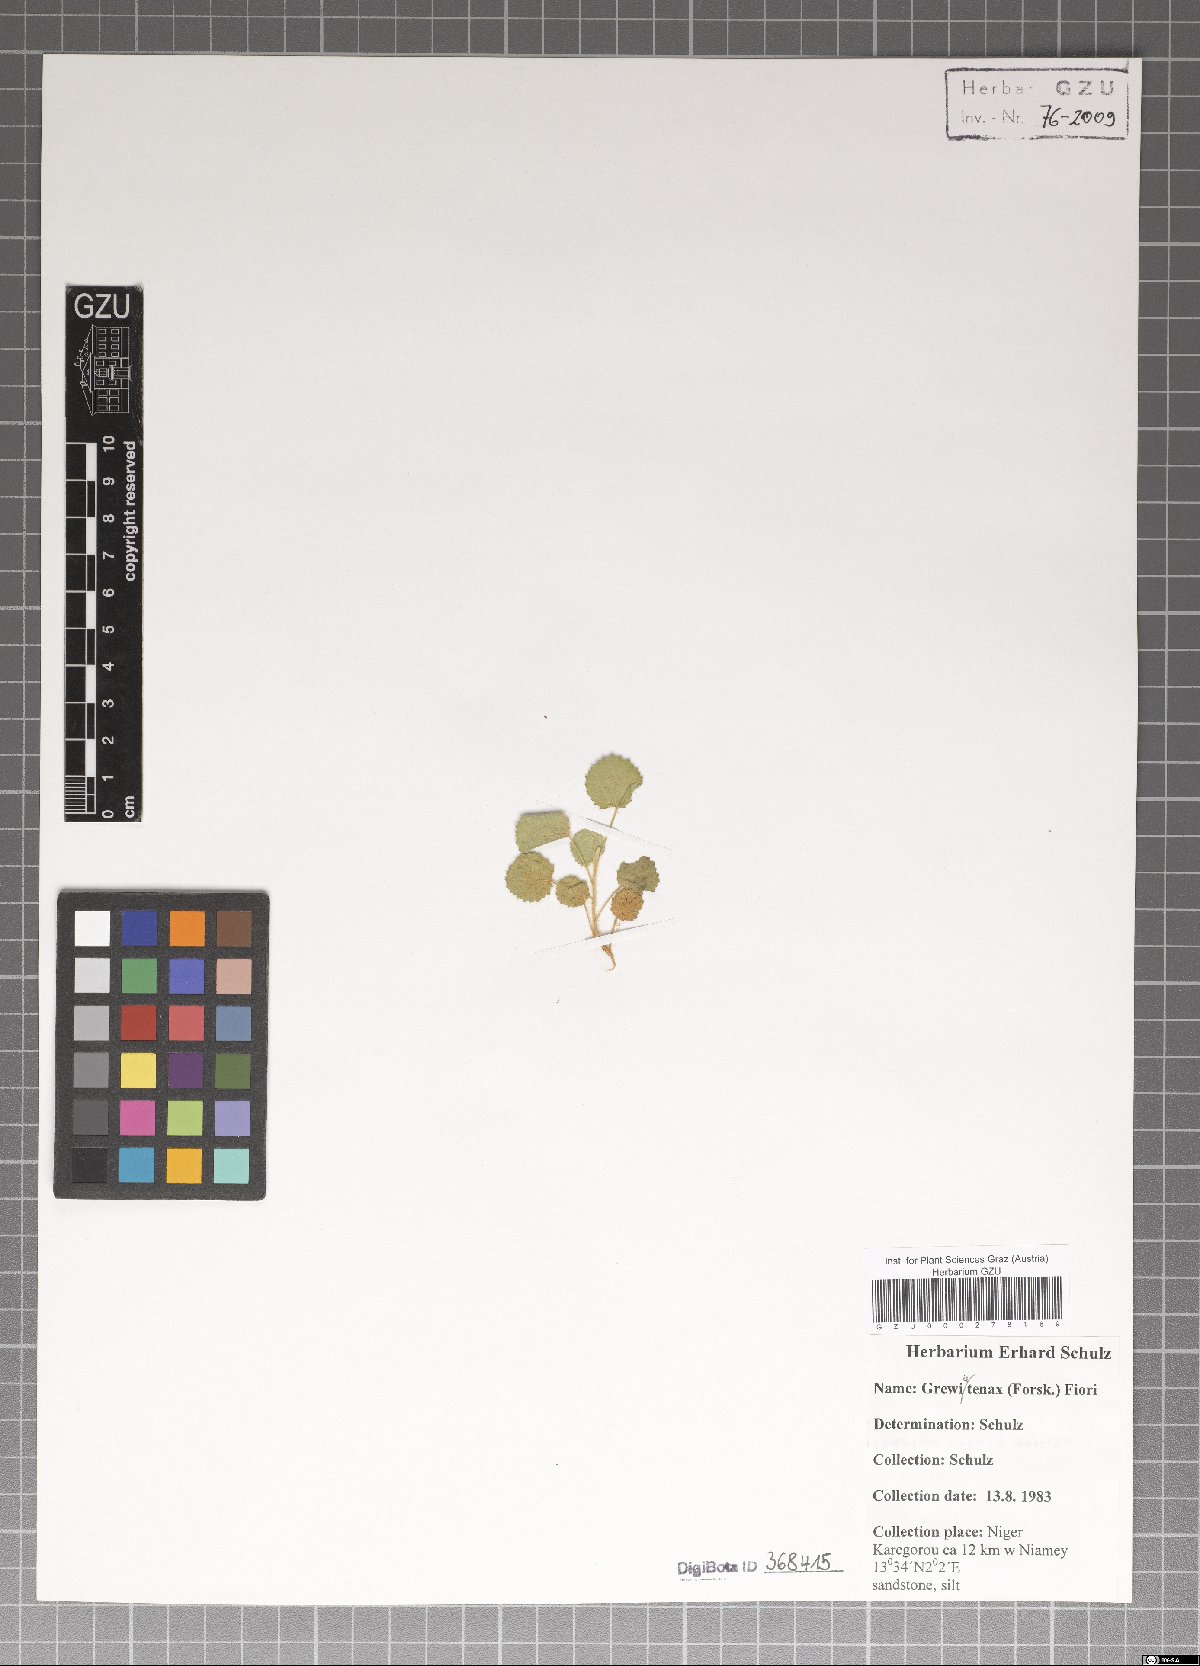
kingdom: Plantae
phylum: Tracheophyta
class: Magnoliopsida
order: Malvales
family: Malvaceae
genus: Grewia
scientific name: Grewia tenax
